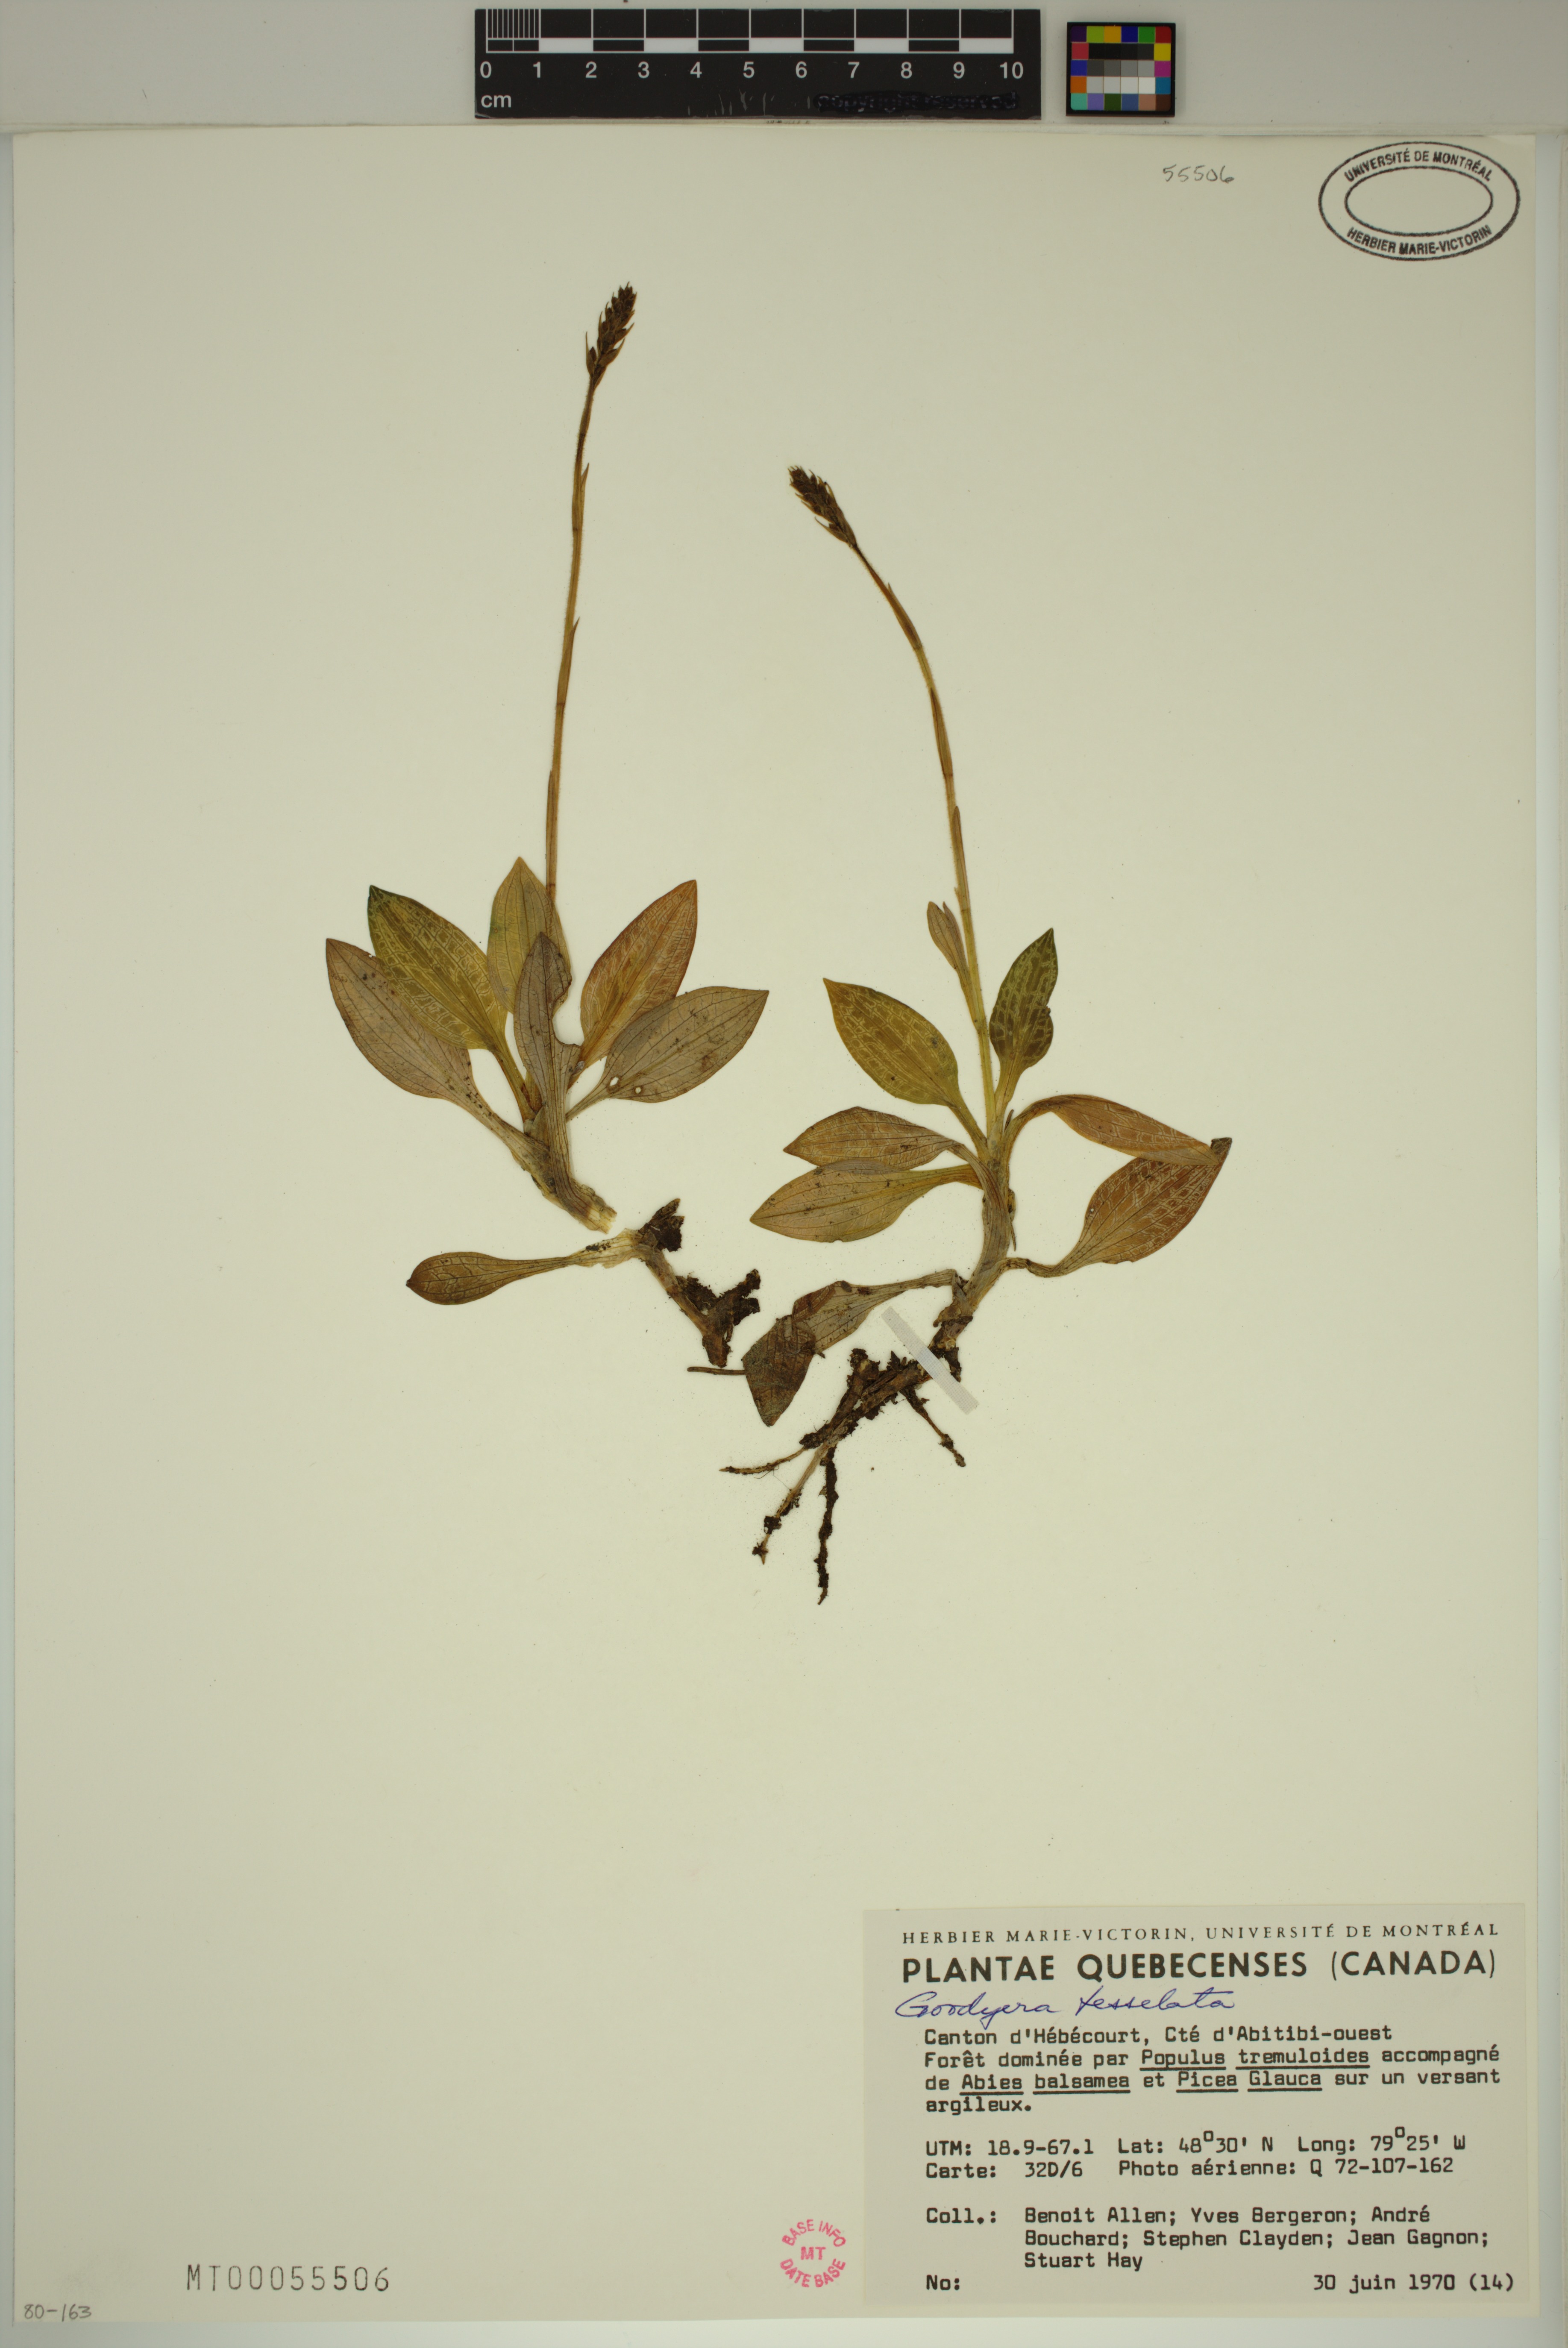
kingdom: Plantae
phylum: Tracheophyta
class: Liliopsida
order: Asparagales
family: Orchidaceae
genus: Goodyera
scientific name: Goodyera tesselata
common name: Checkered rattlesnake-plantain
